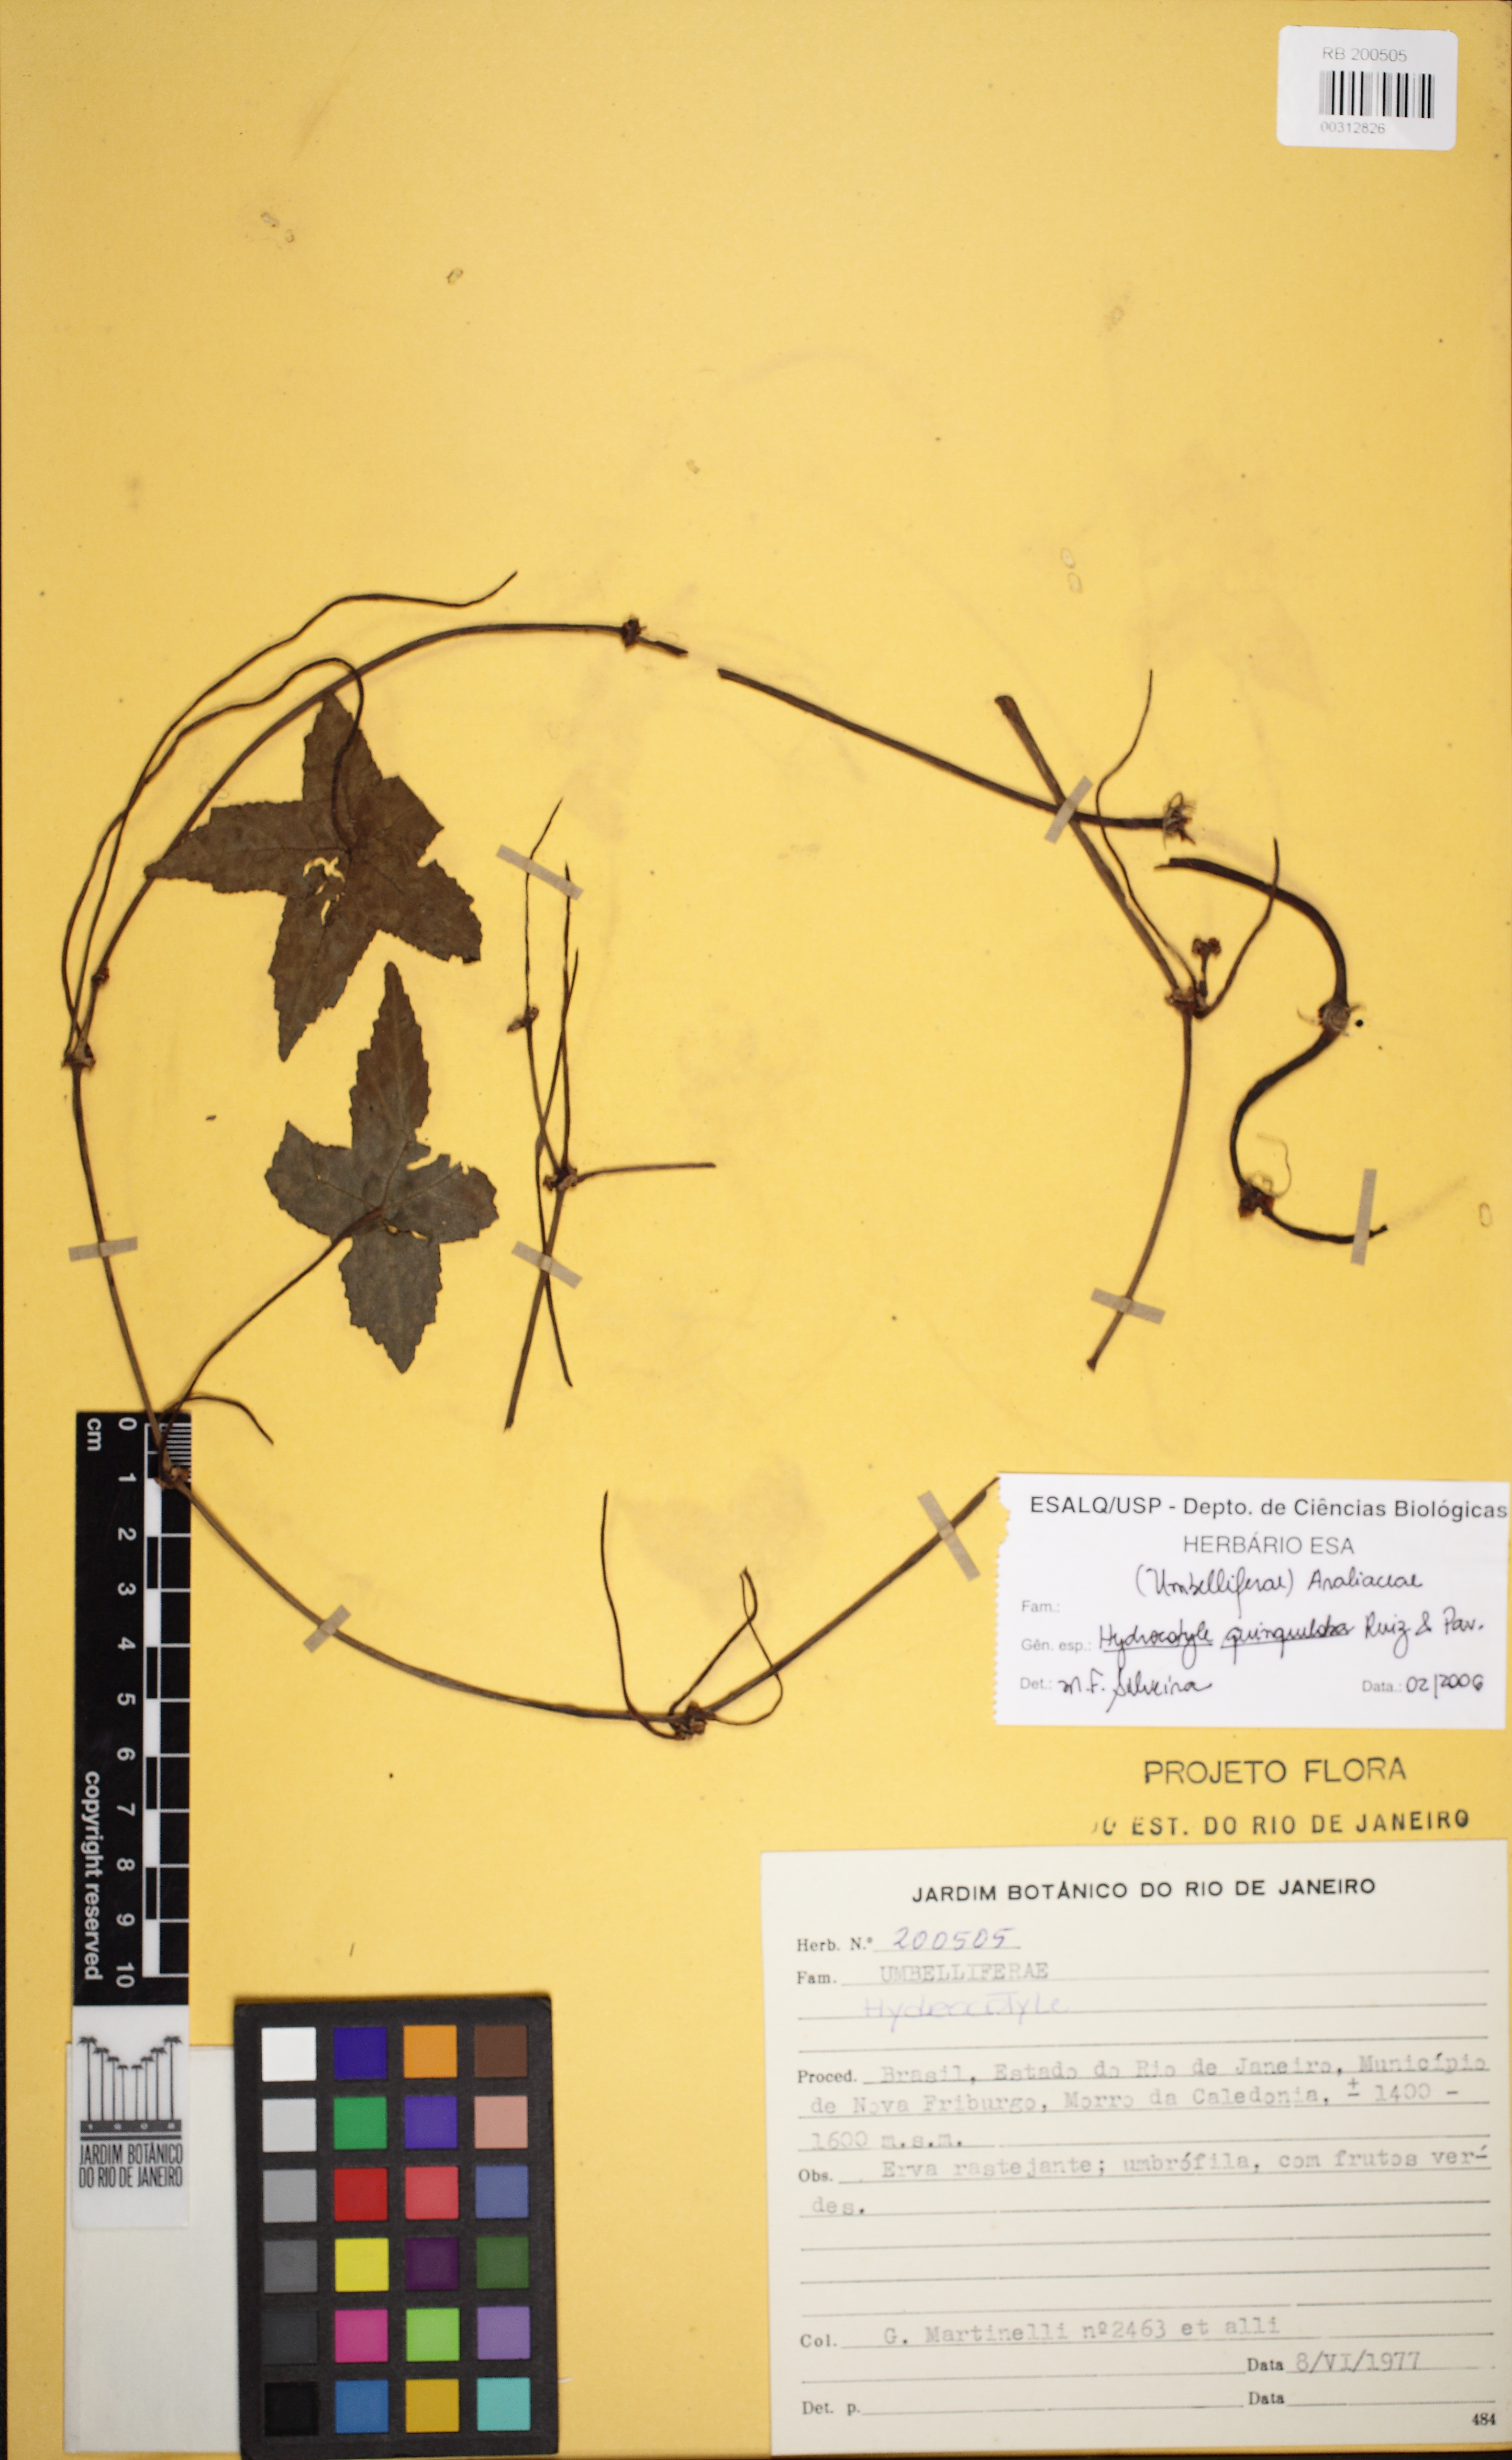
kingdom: Plantae
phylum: Tracheophyta
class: Magnoliopsida
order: Apiales
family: Araliaceae
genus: Hydrocotyle
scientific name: Hydrocotyle quinqueloba
